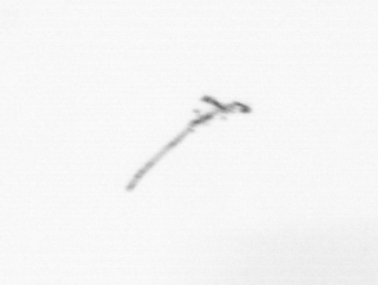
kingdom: Chromista
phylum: Ochrophyta
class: Bacillariophyceae
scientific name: Bacillariophyceae
